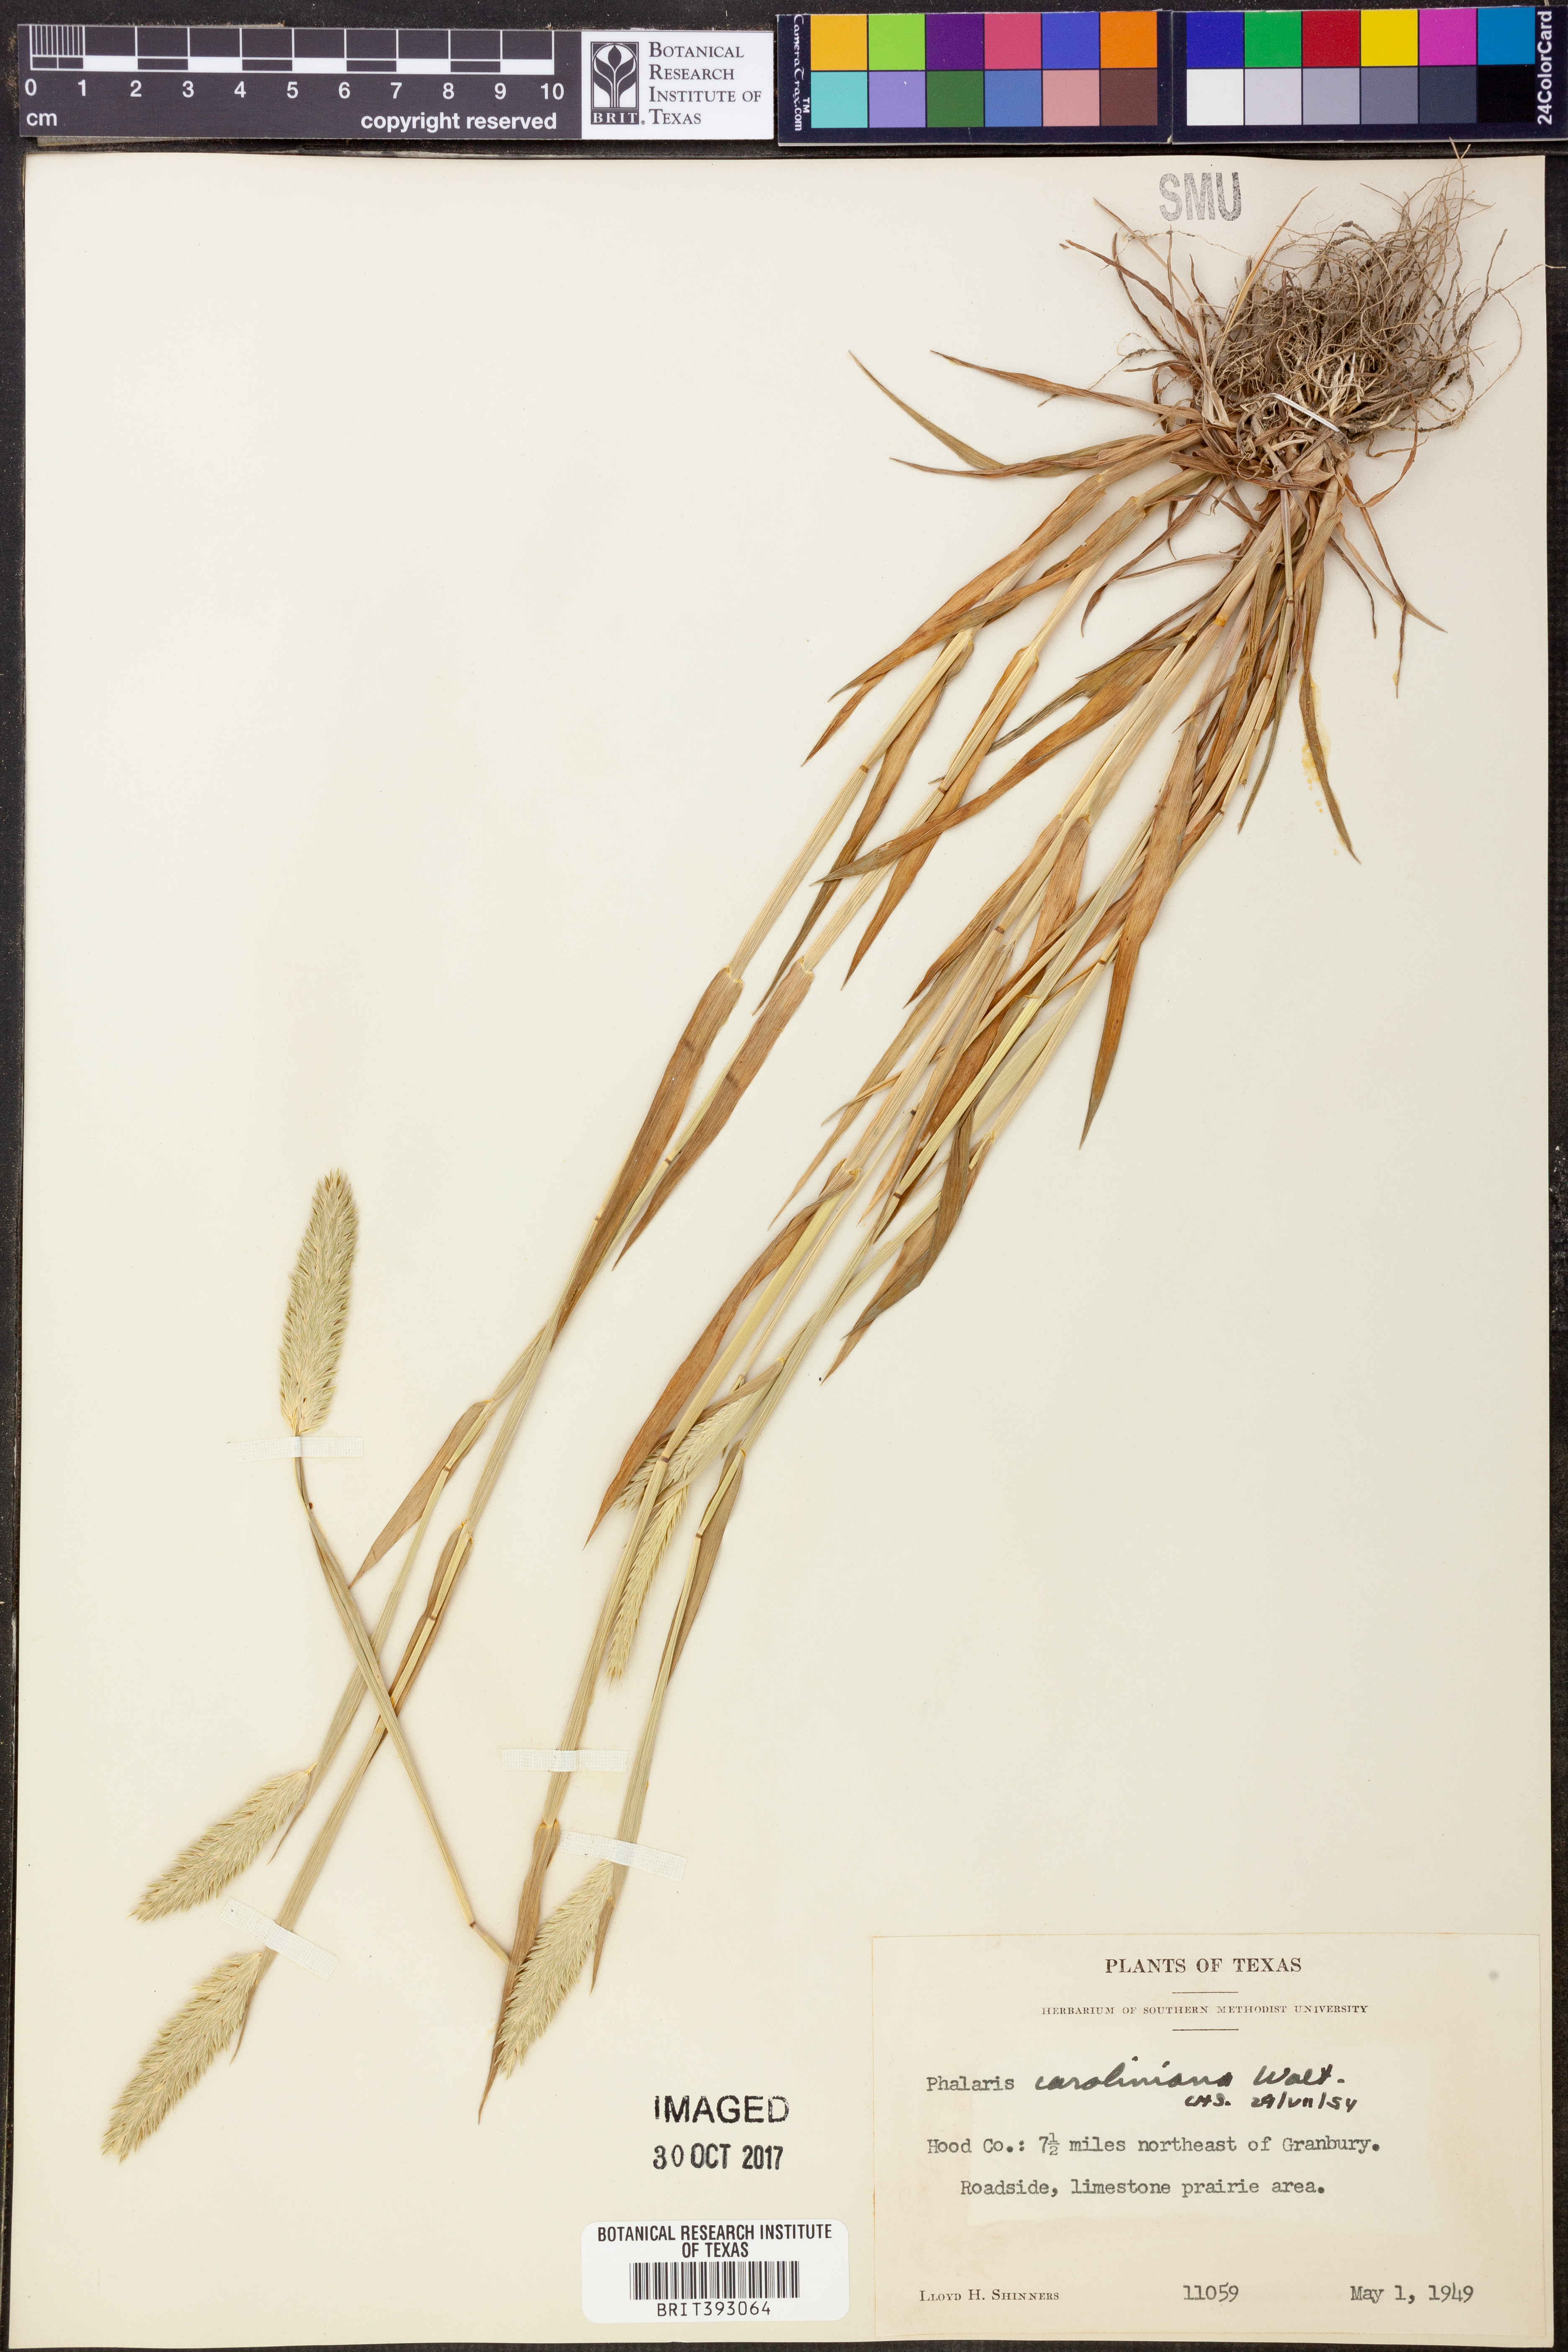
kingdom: Plantae
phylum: Tracheophyta
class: Liliopsida
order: Poales
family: Poaceae
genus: Phalaris
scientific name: Phalaris caroliniana
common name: May grass
